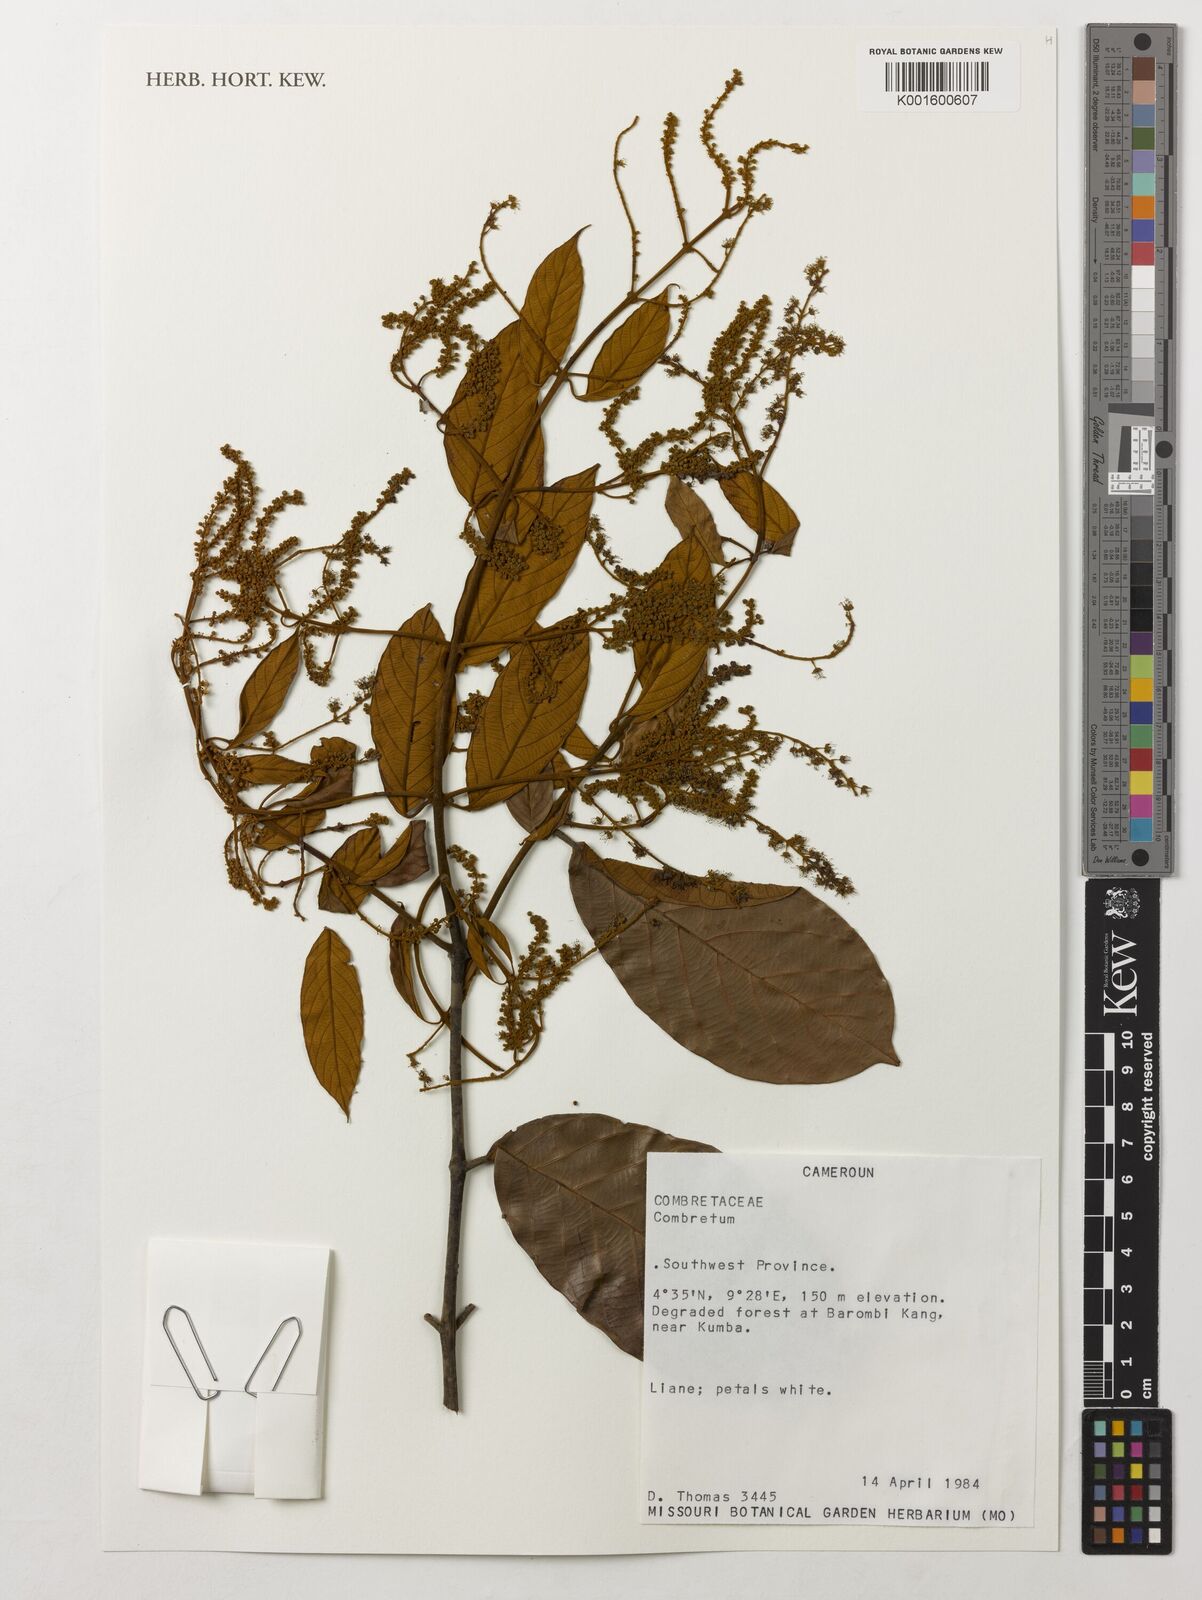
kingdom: Plantae
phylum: Tracheophyta
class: Magnoliopsida
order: Myrtales
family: Combretaceae
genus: Combretum
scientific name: Combretum
